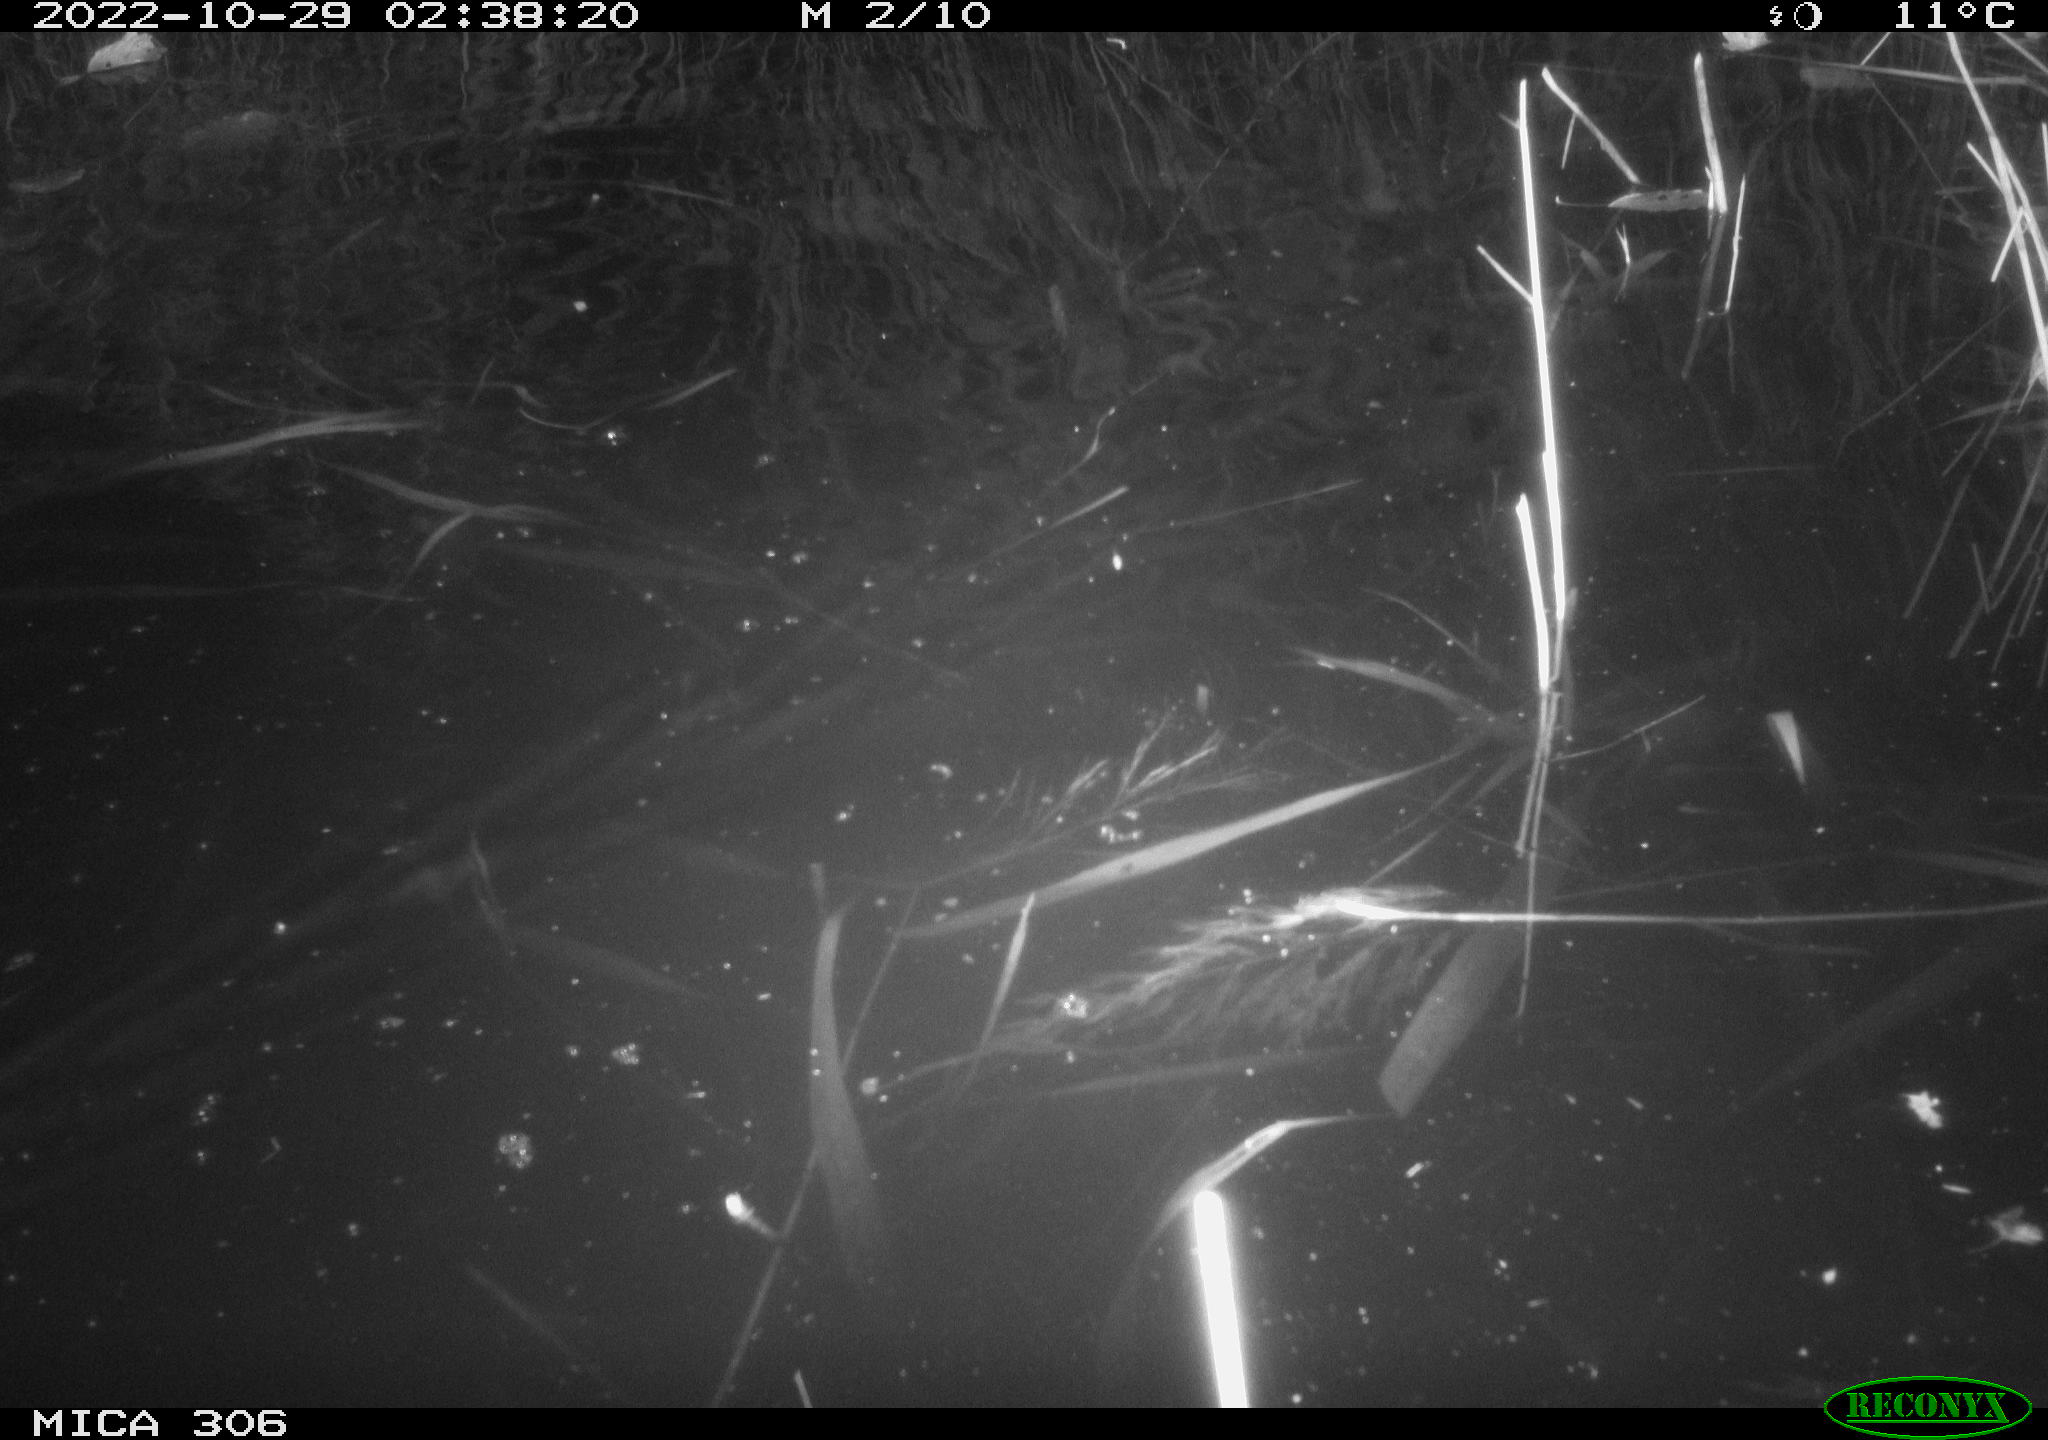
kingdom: Animalia
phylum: Chordata
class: Mammalia
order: Rodentia
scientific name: Rodentia
